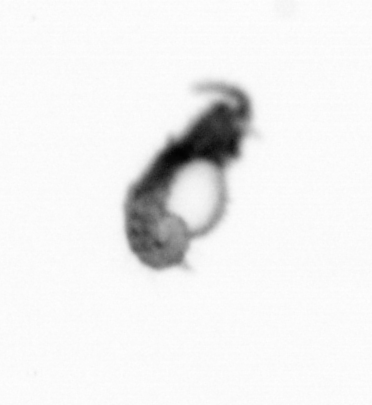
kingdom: Animalia
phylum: Annelida
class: Polychaeta
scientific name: Polychaeta
